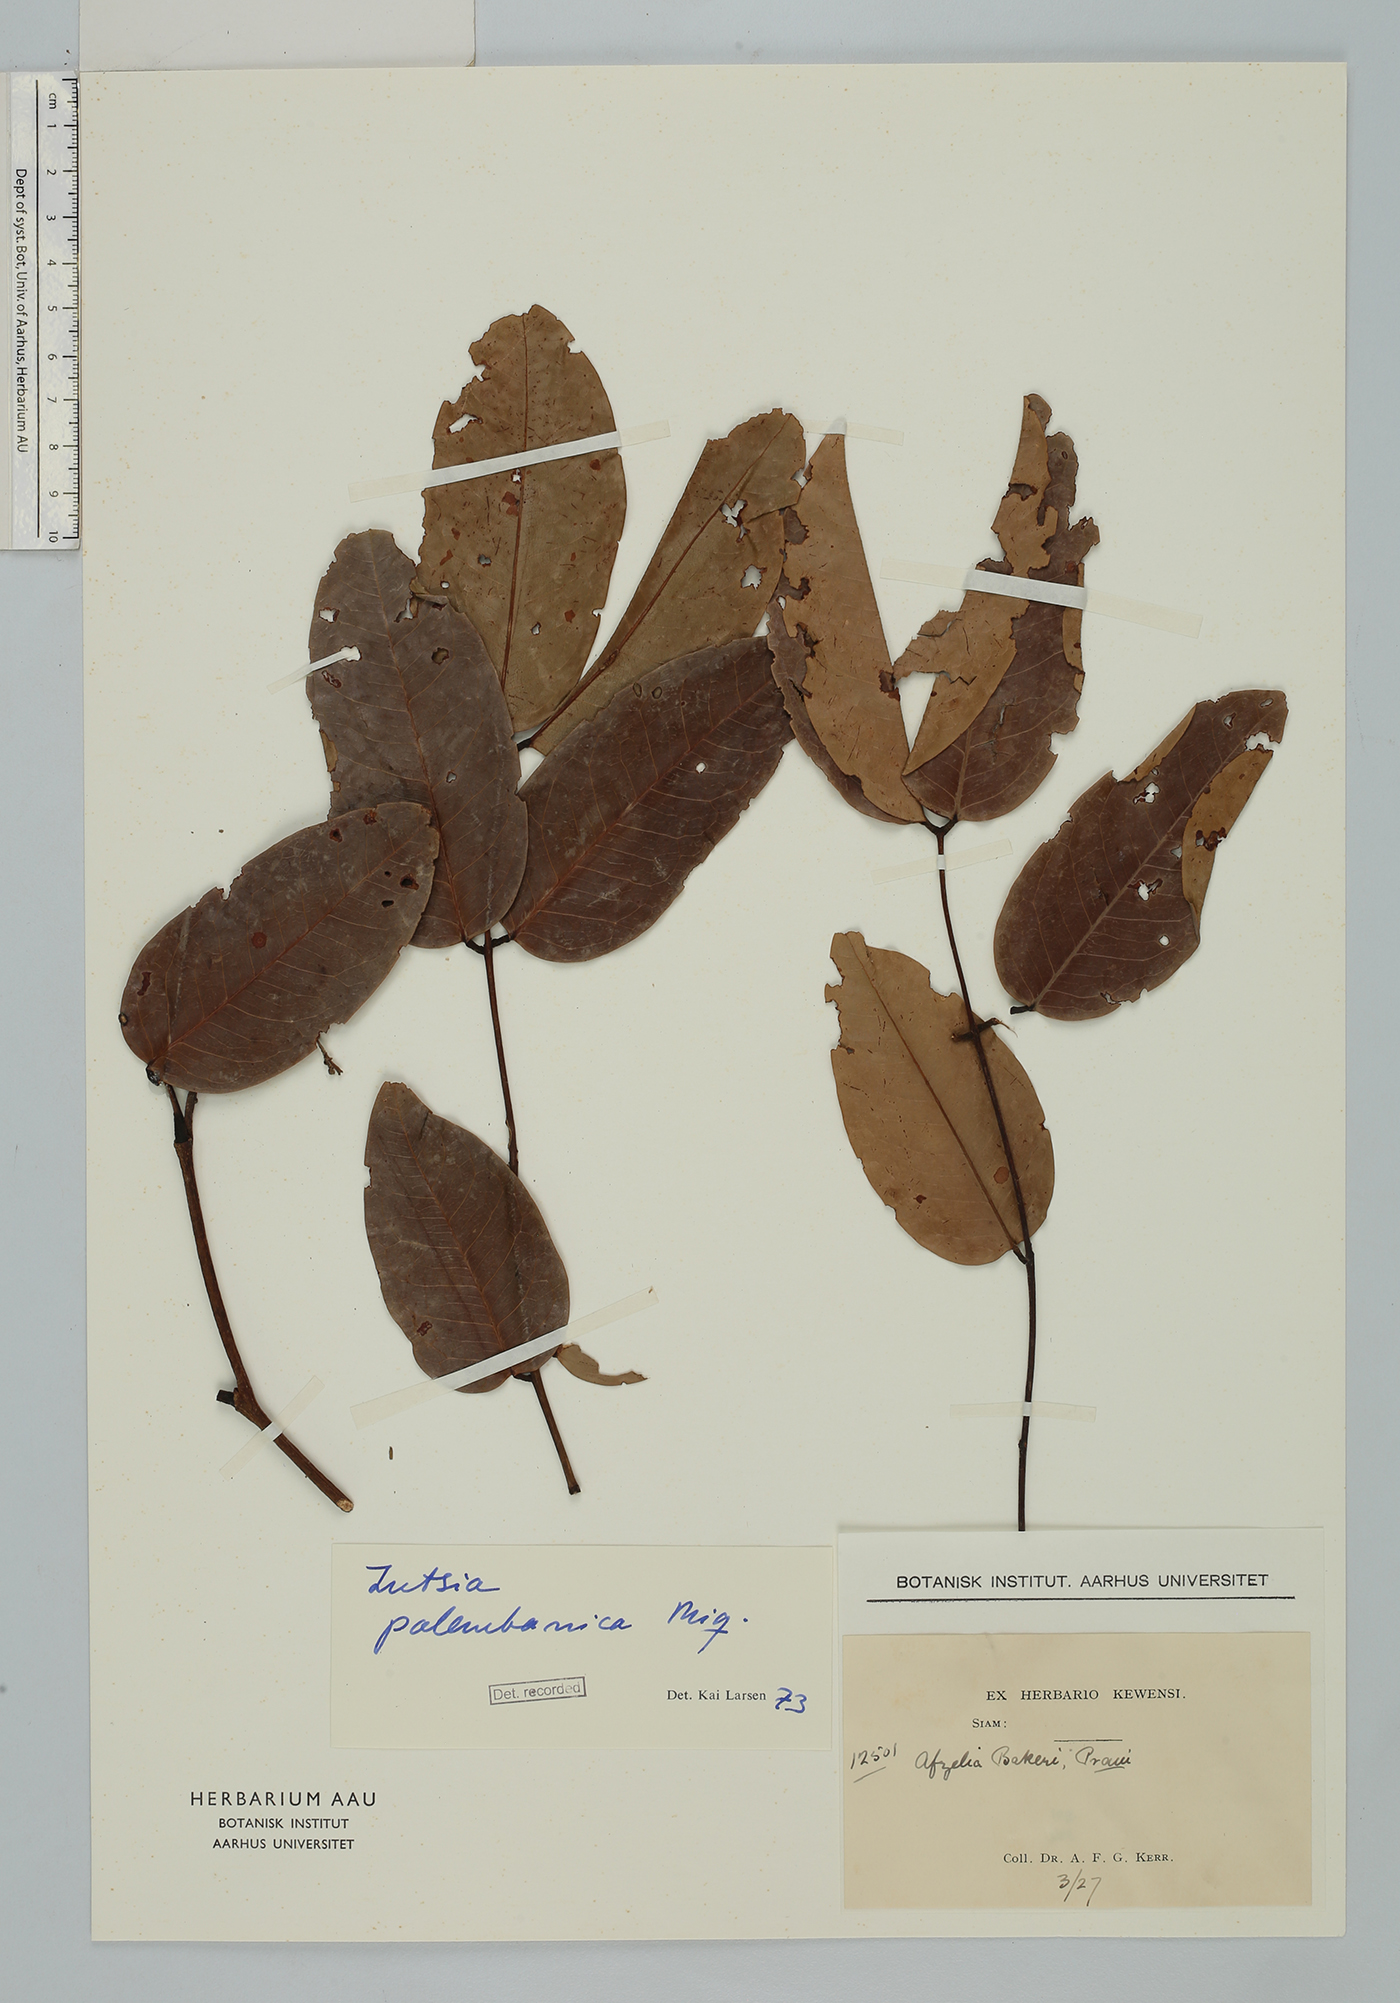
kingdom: Plantae
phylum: Tracheophyta
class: Magnoliopsida
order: Fabales
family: Fabaceae
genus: Intsia
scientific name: Intsia palembanica
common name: Merbau
